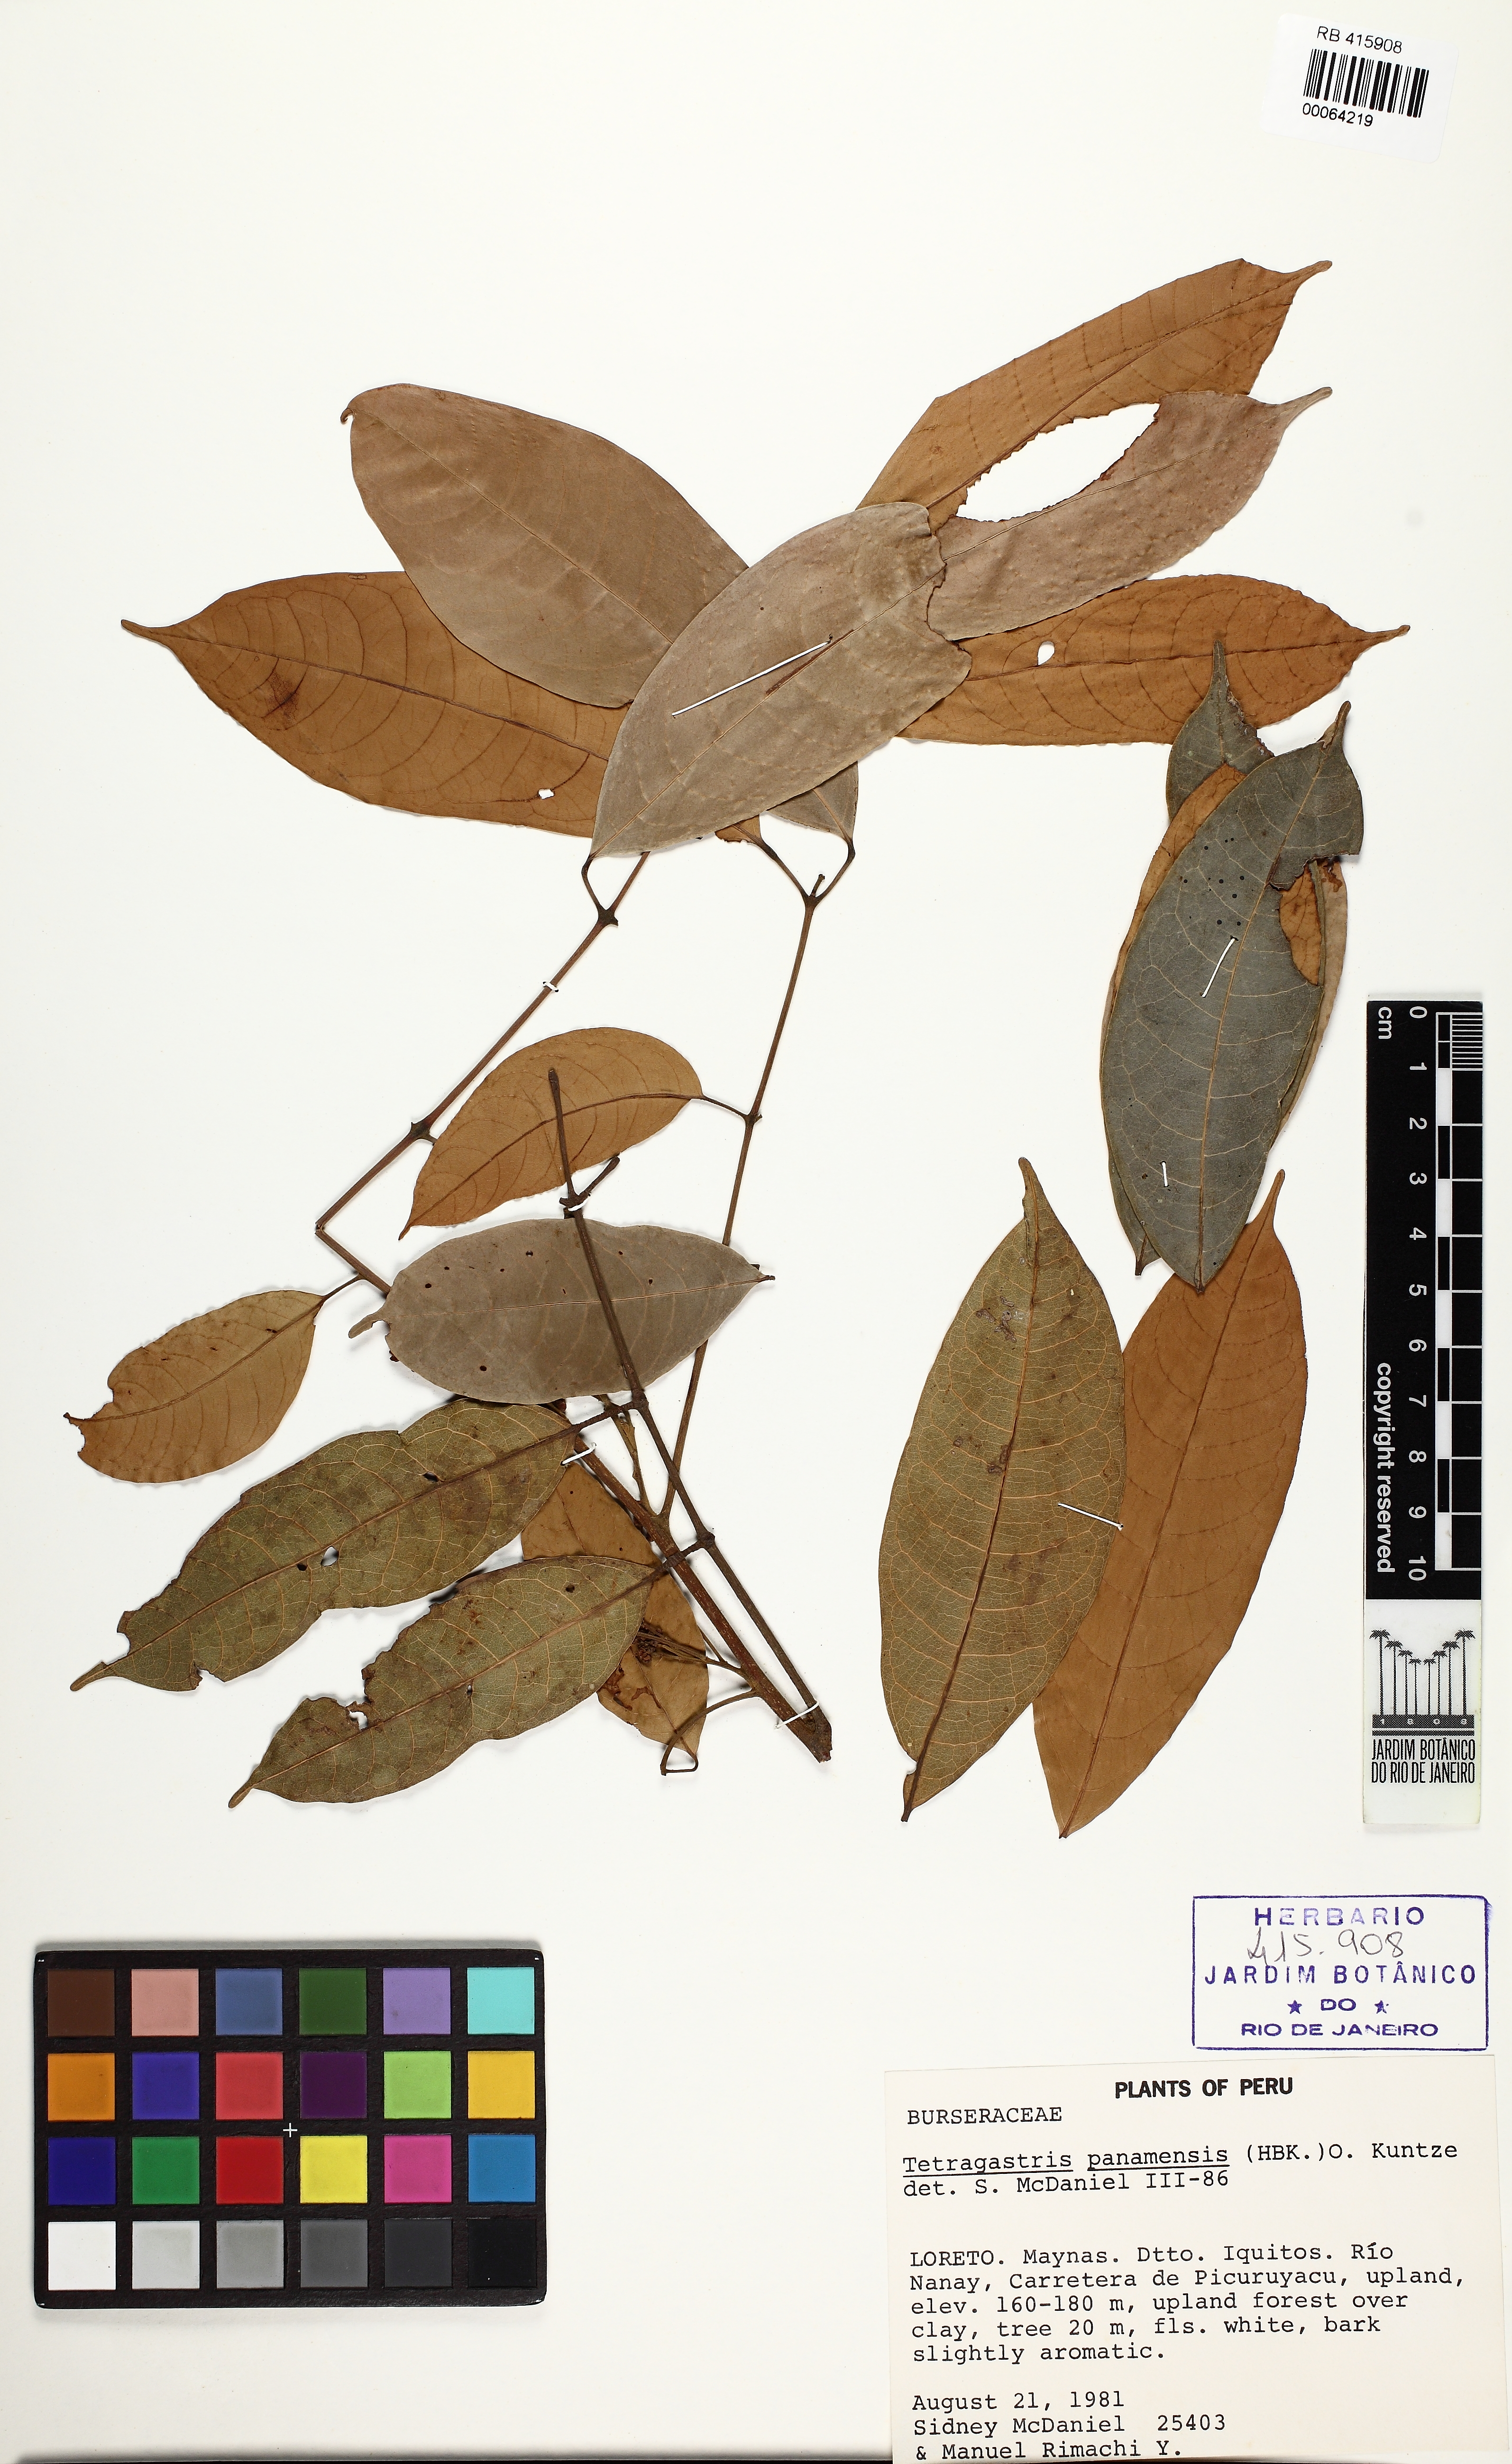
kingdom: Plantae
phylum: Tracheophyta
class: Magnoliopsida
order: Sapindales
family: Burseraceae
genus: Tetragastris
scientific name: Tetragastris panamensis
